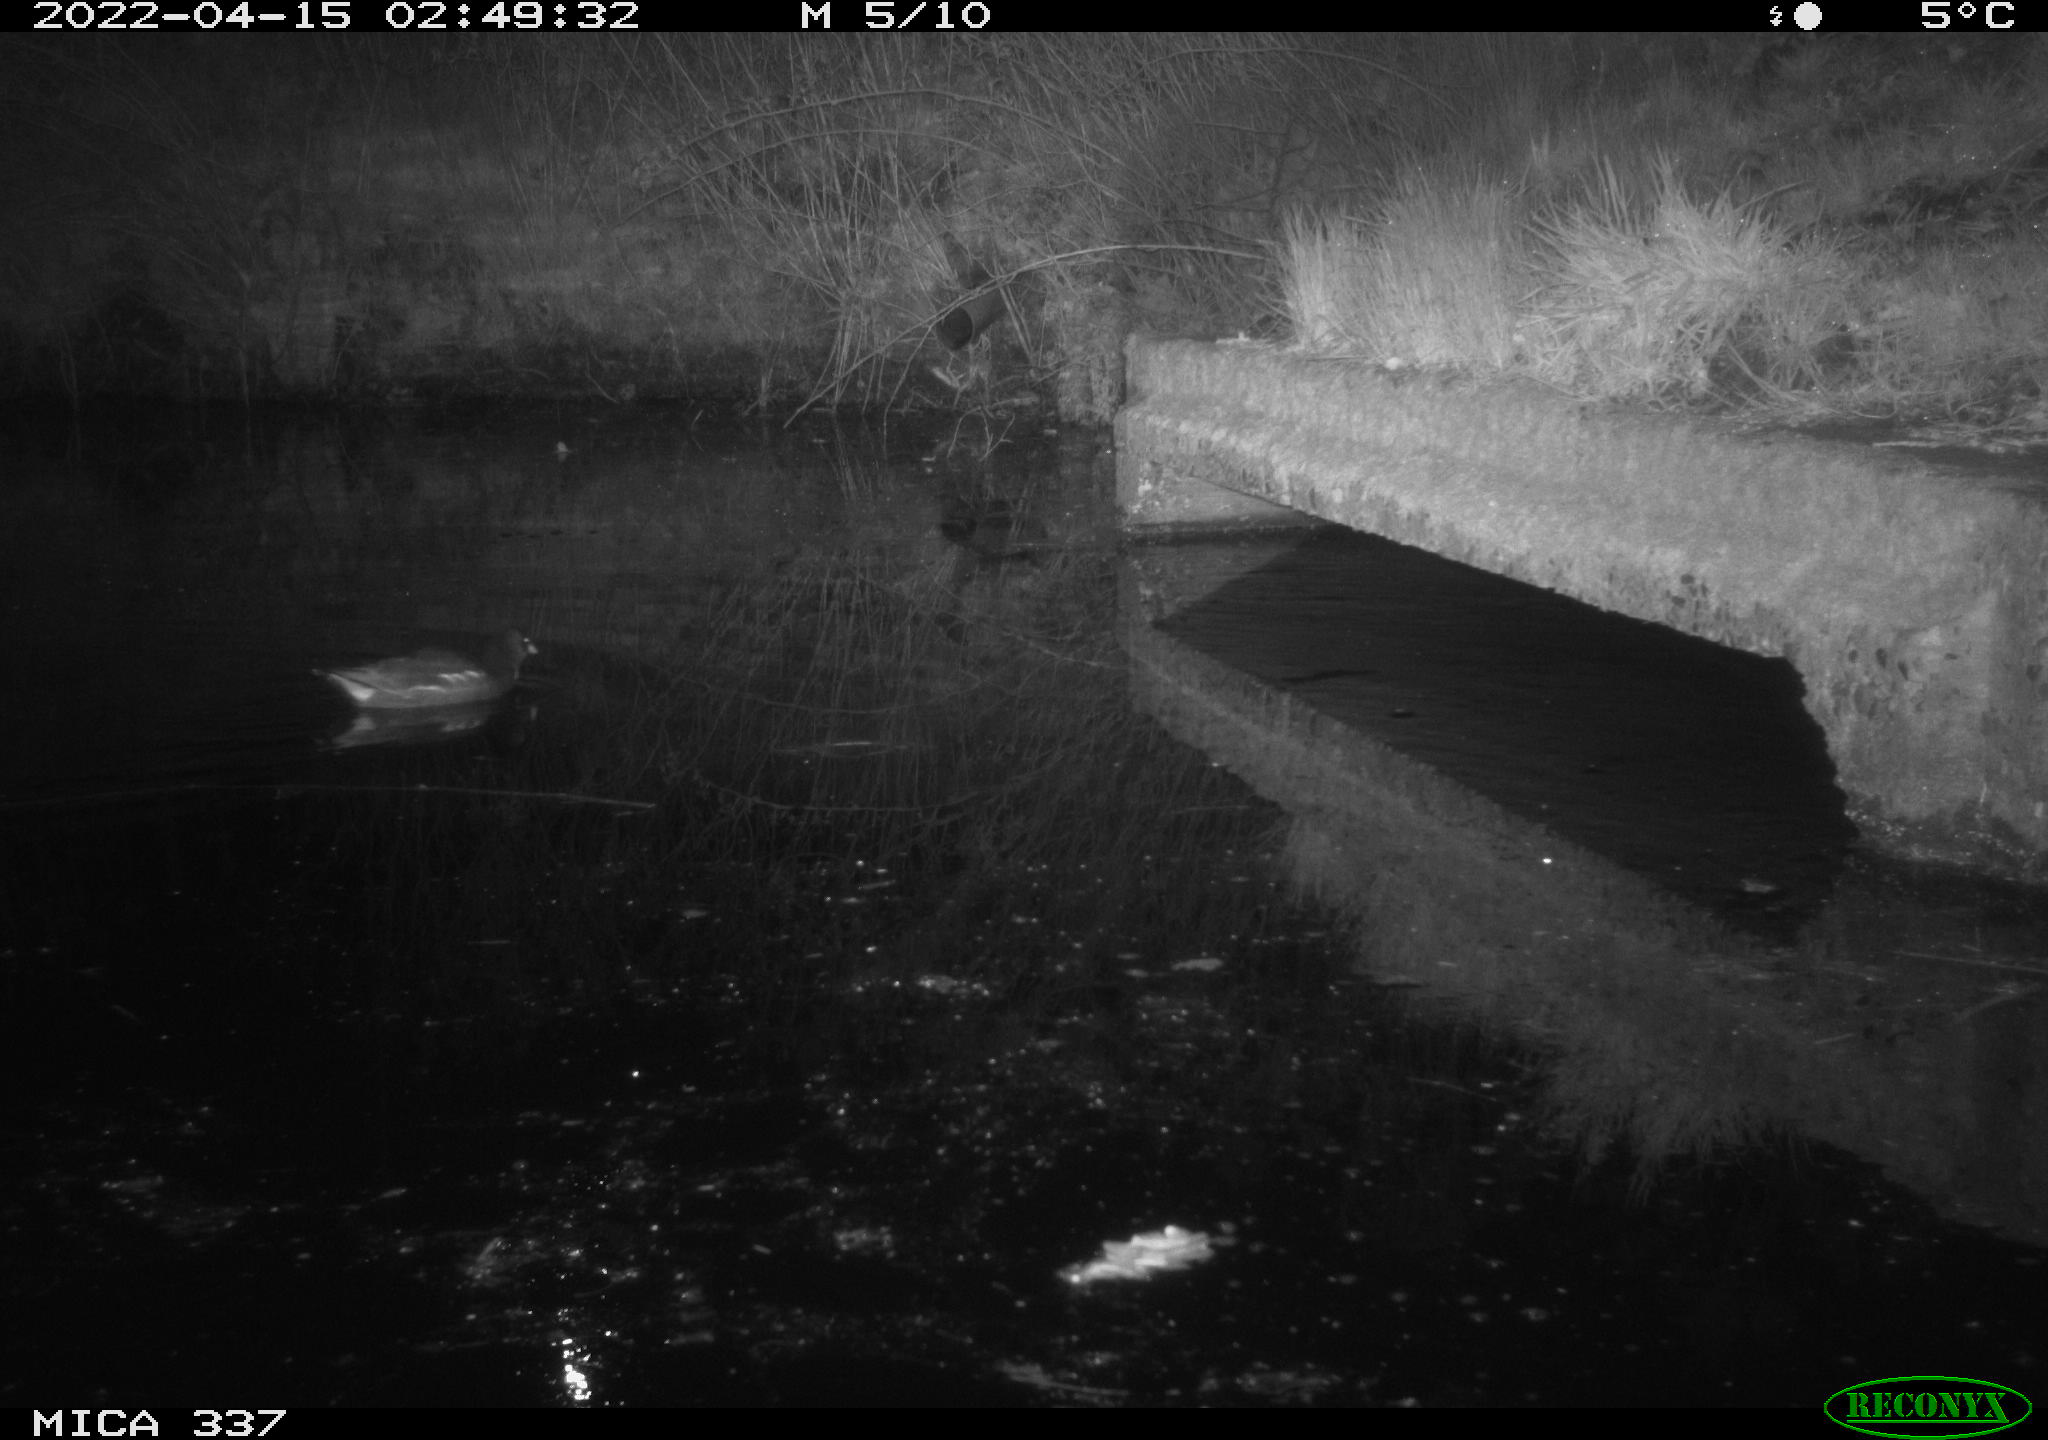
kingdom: Animalia
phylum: Chordata
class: Aves
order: Gruiformes
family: Rallidae
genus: Gallinula
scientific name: Gallinula chloropus
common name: Common moorhen
